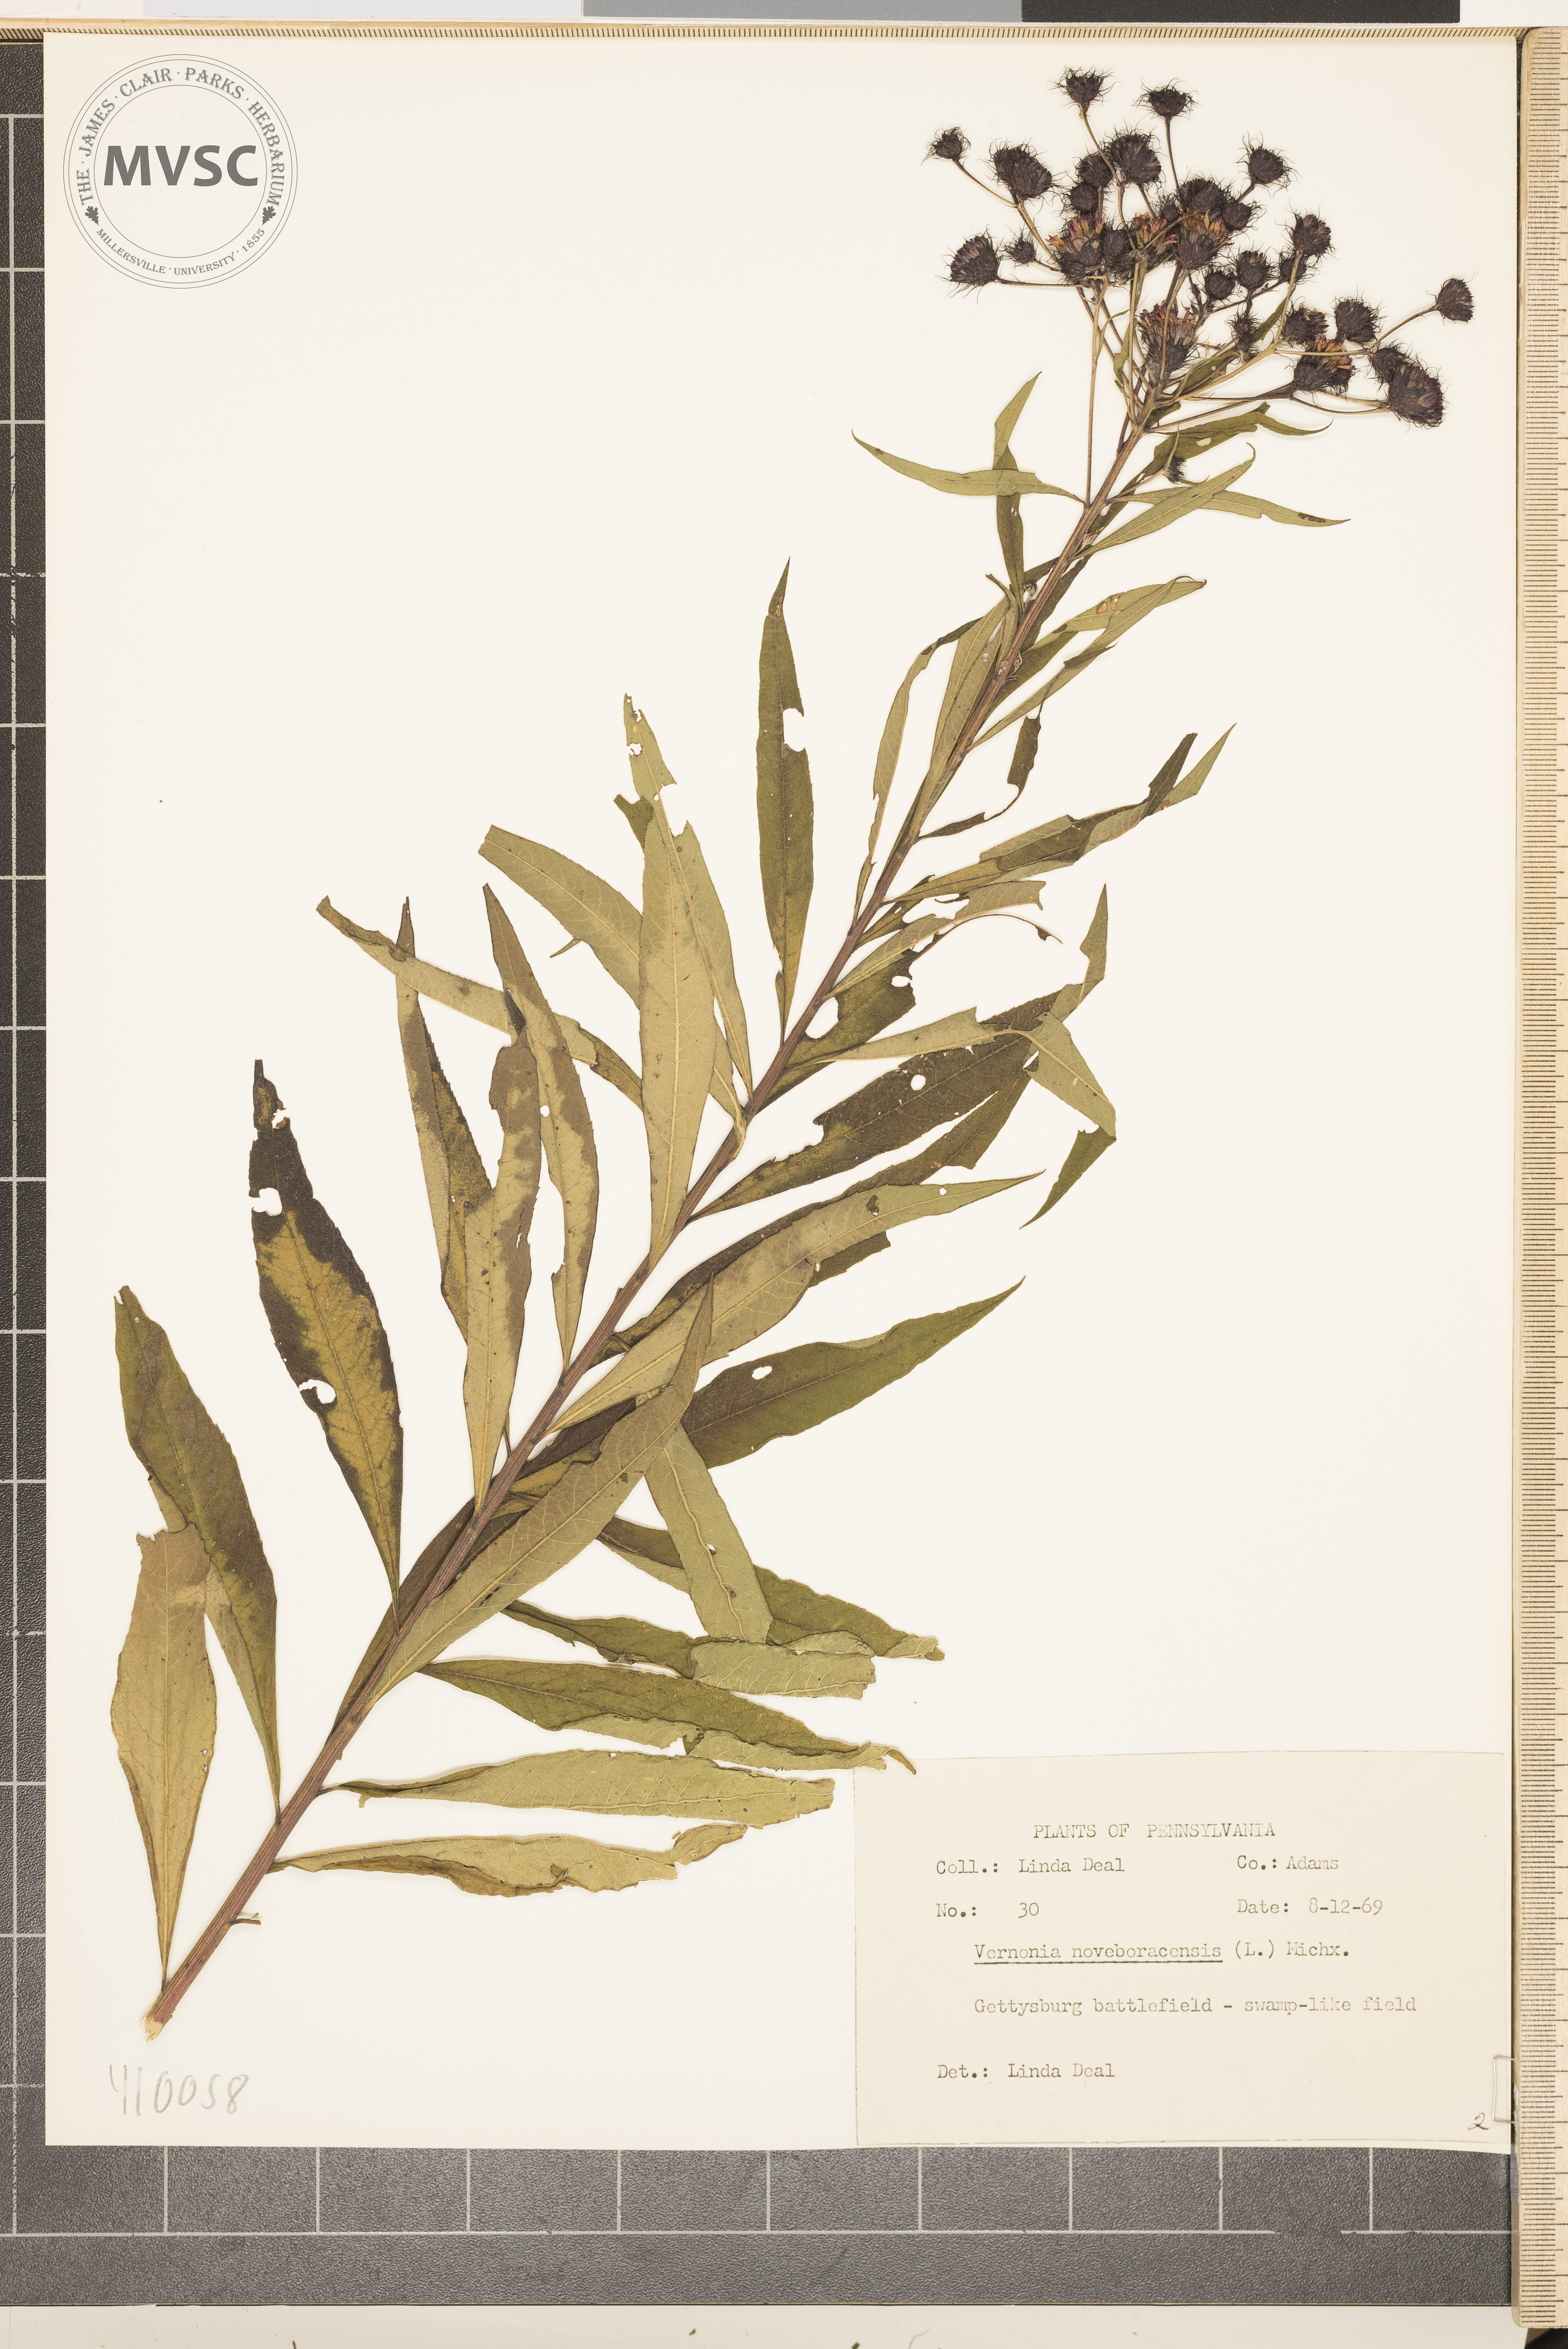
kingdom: Plantae
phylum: Tracheophyta
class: Magnoliopsida
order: Asterales
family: Asteraceae
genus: Vernonia
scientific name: Vernonia noveboracensis
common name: New york ironweed
